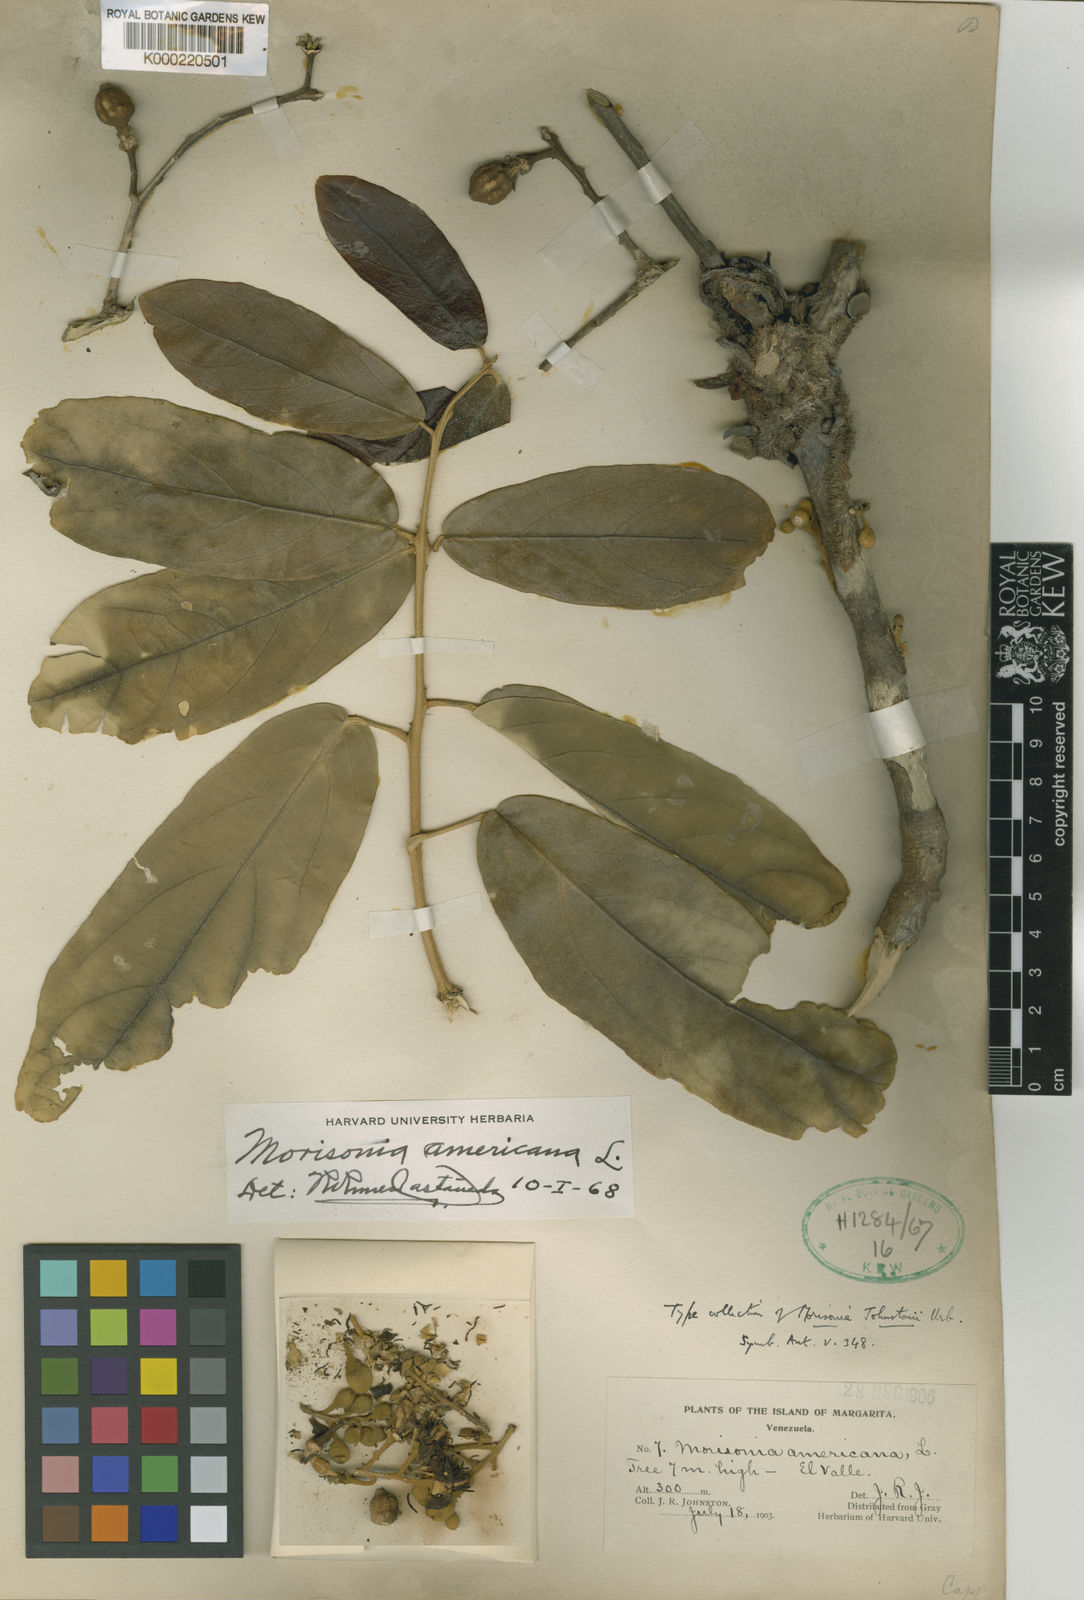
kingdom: Plantae
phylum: Tracheophyta
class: Magnoliopsida
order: Brassicales
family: Capparaceae
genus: Morisonia
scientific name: Morisonia americana
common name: Wild mesple
